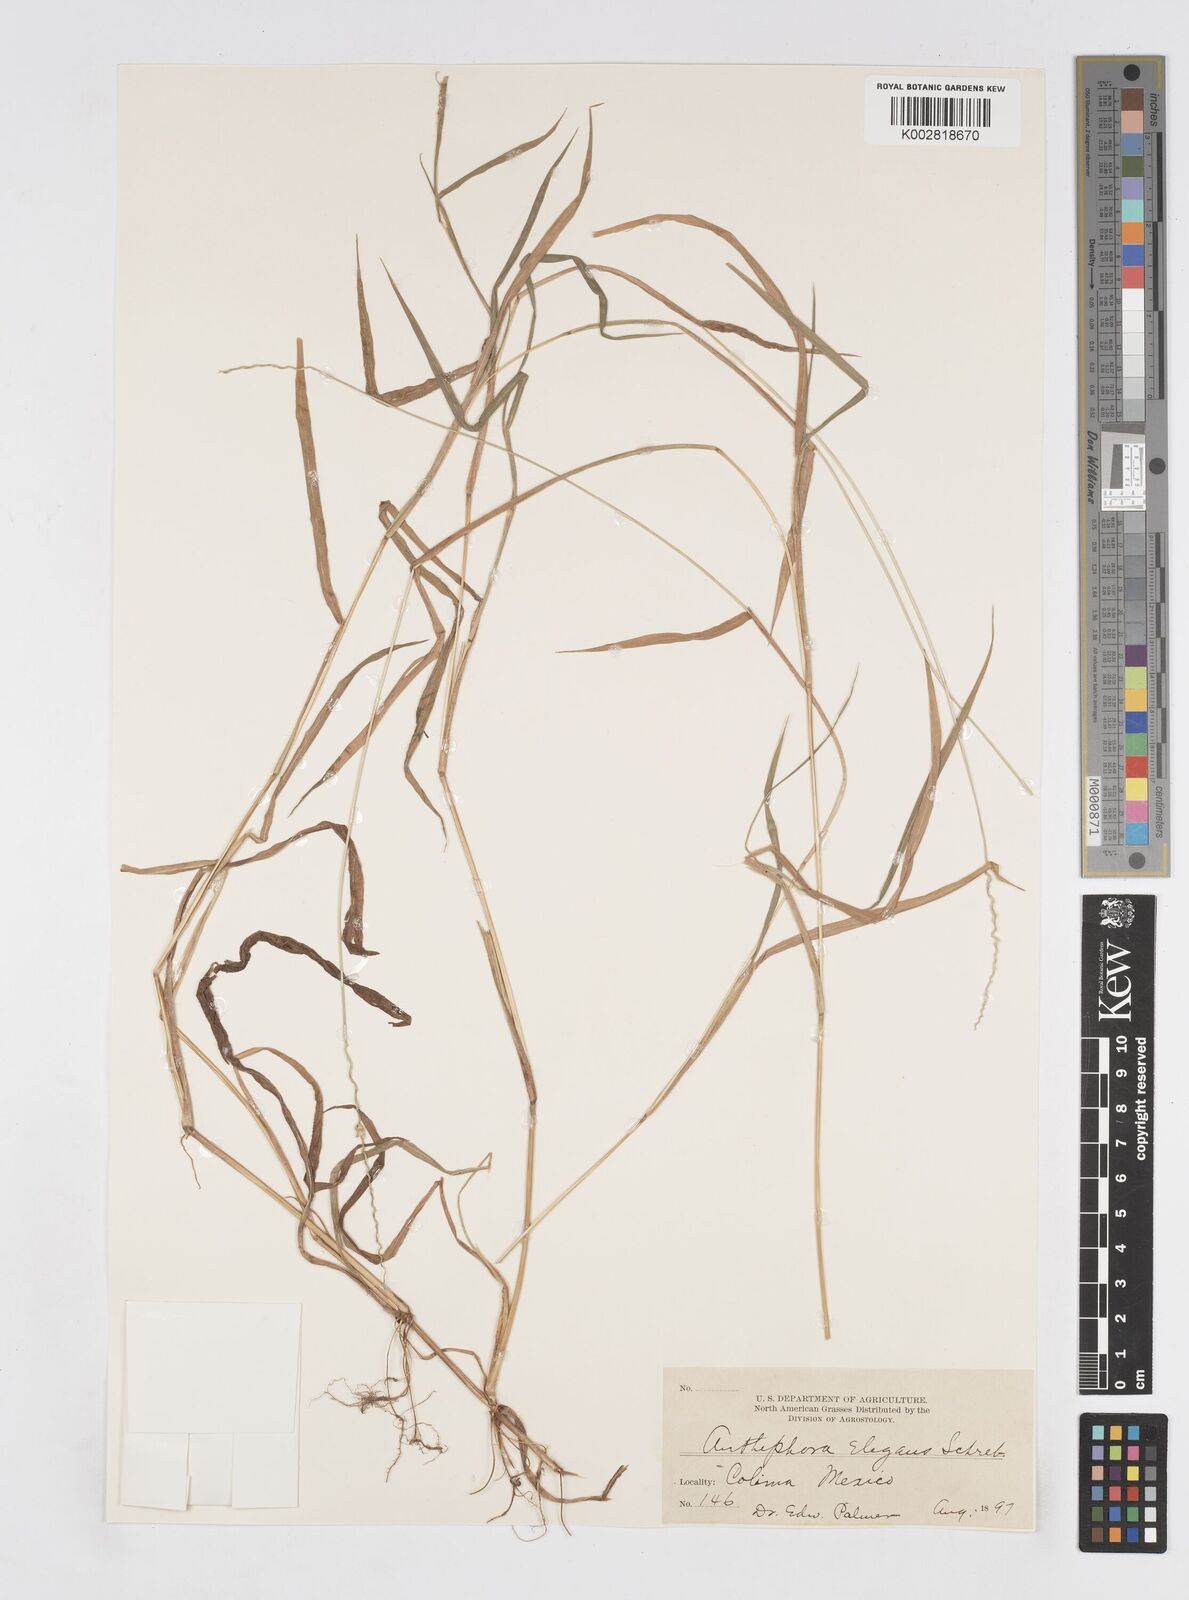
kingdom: Plantae
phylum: Tracheophyta
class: Liliopsida
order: Poales
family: Poaceae
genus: Anthephora
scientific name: Anthephora hermaphrodita
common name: Oldfield grass
